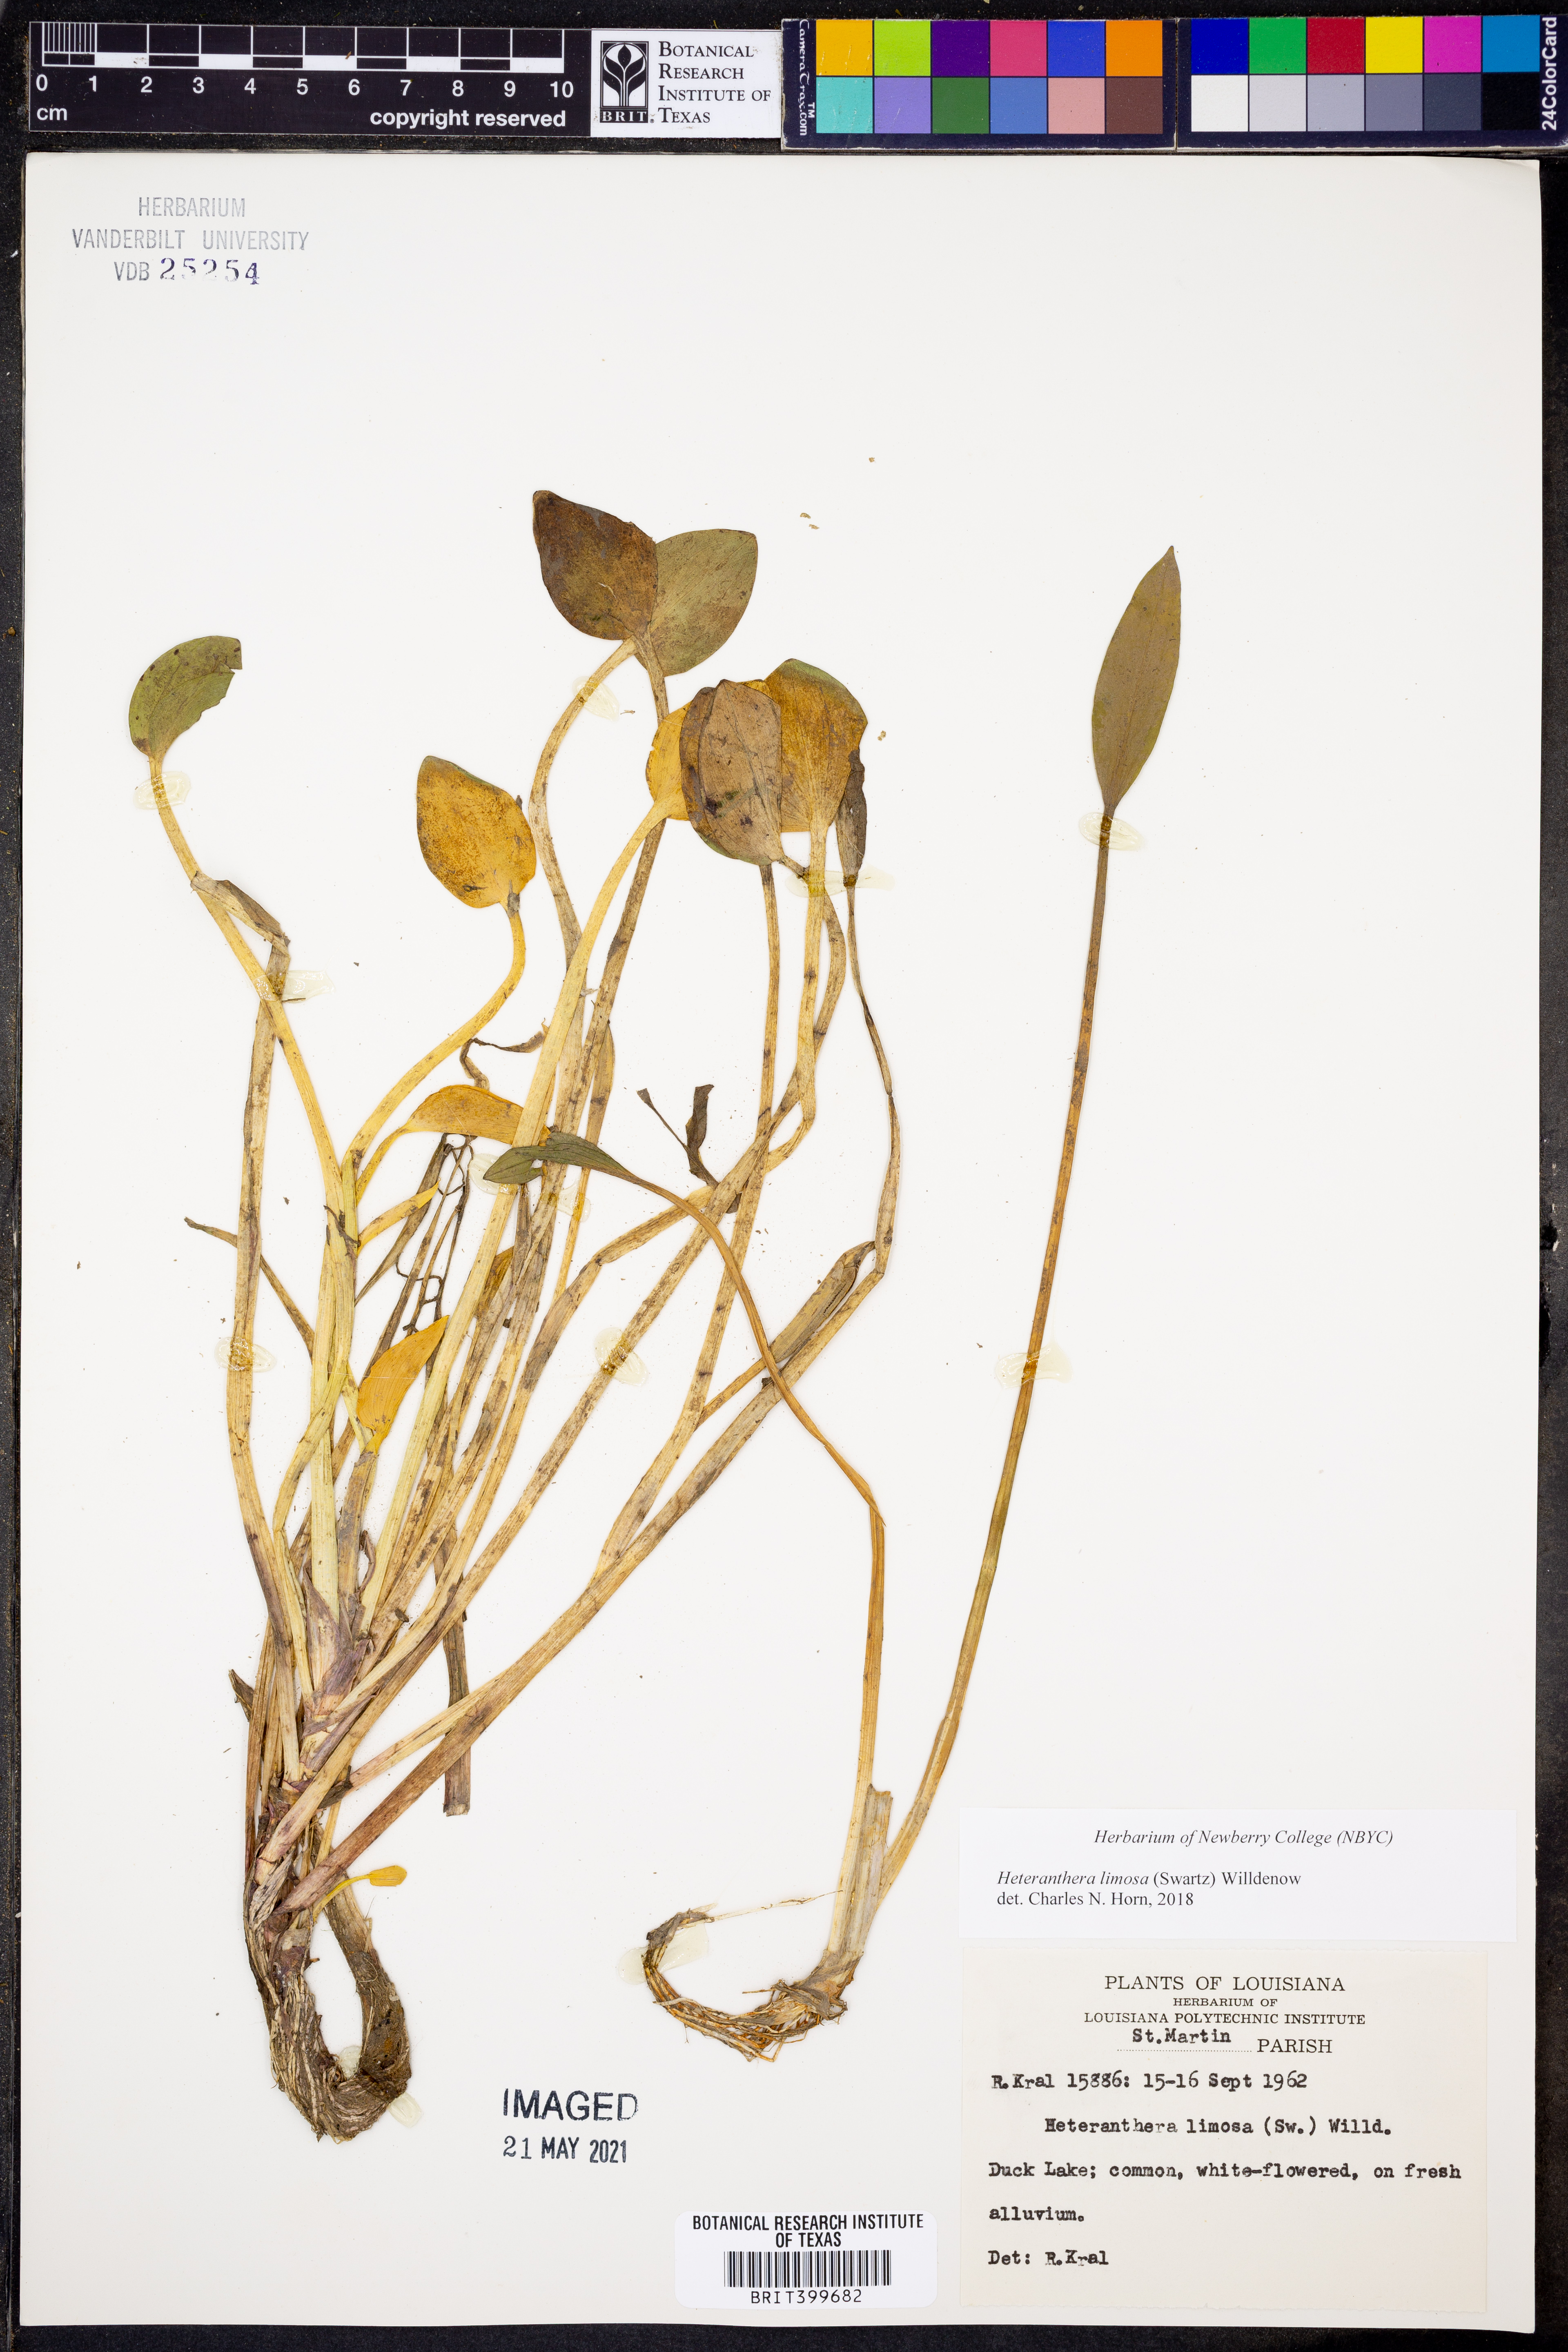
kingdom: Plantae
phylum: Tracheophyta
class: Liliopsida
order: Commelinales
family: Pontederiaceae
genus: Heteranthera
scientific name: Heteranthera limosa
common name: Blue mud-plantain
